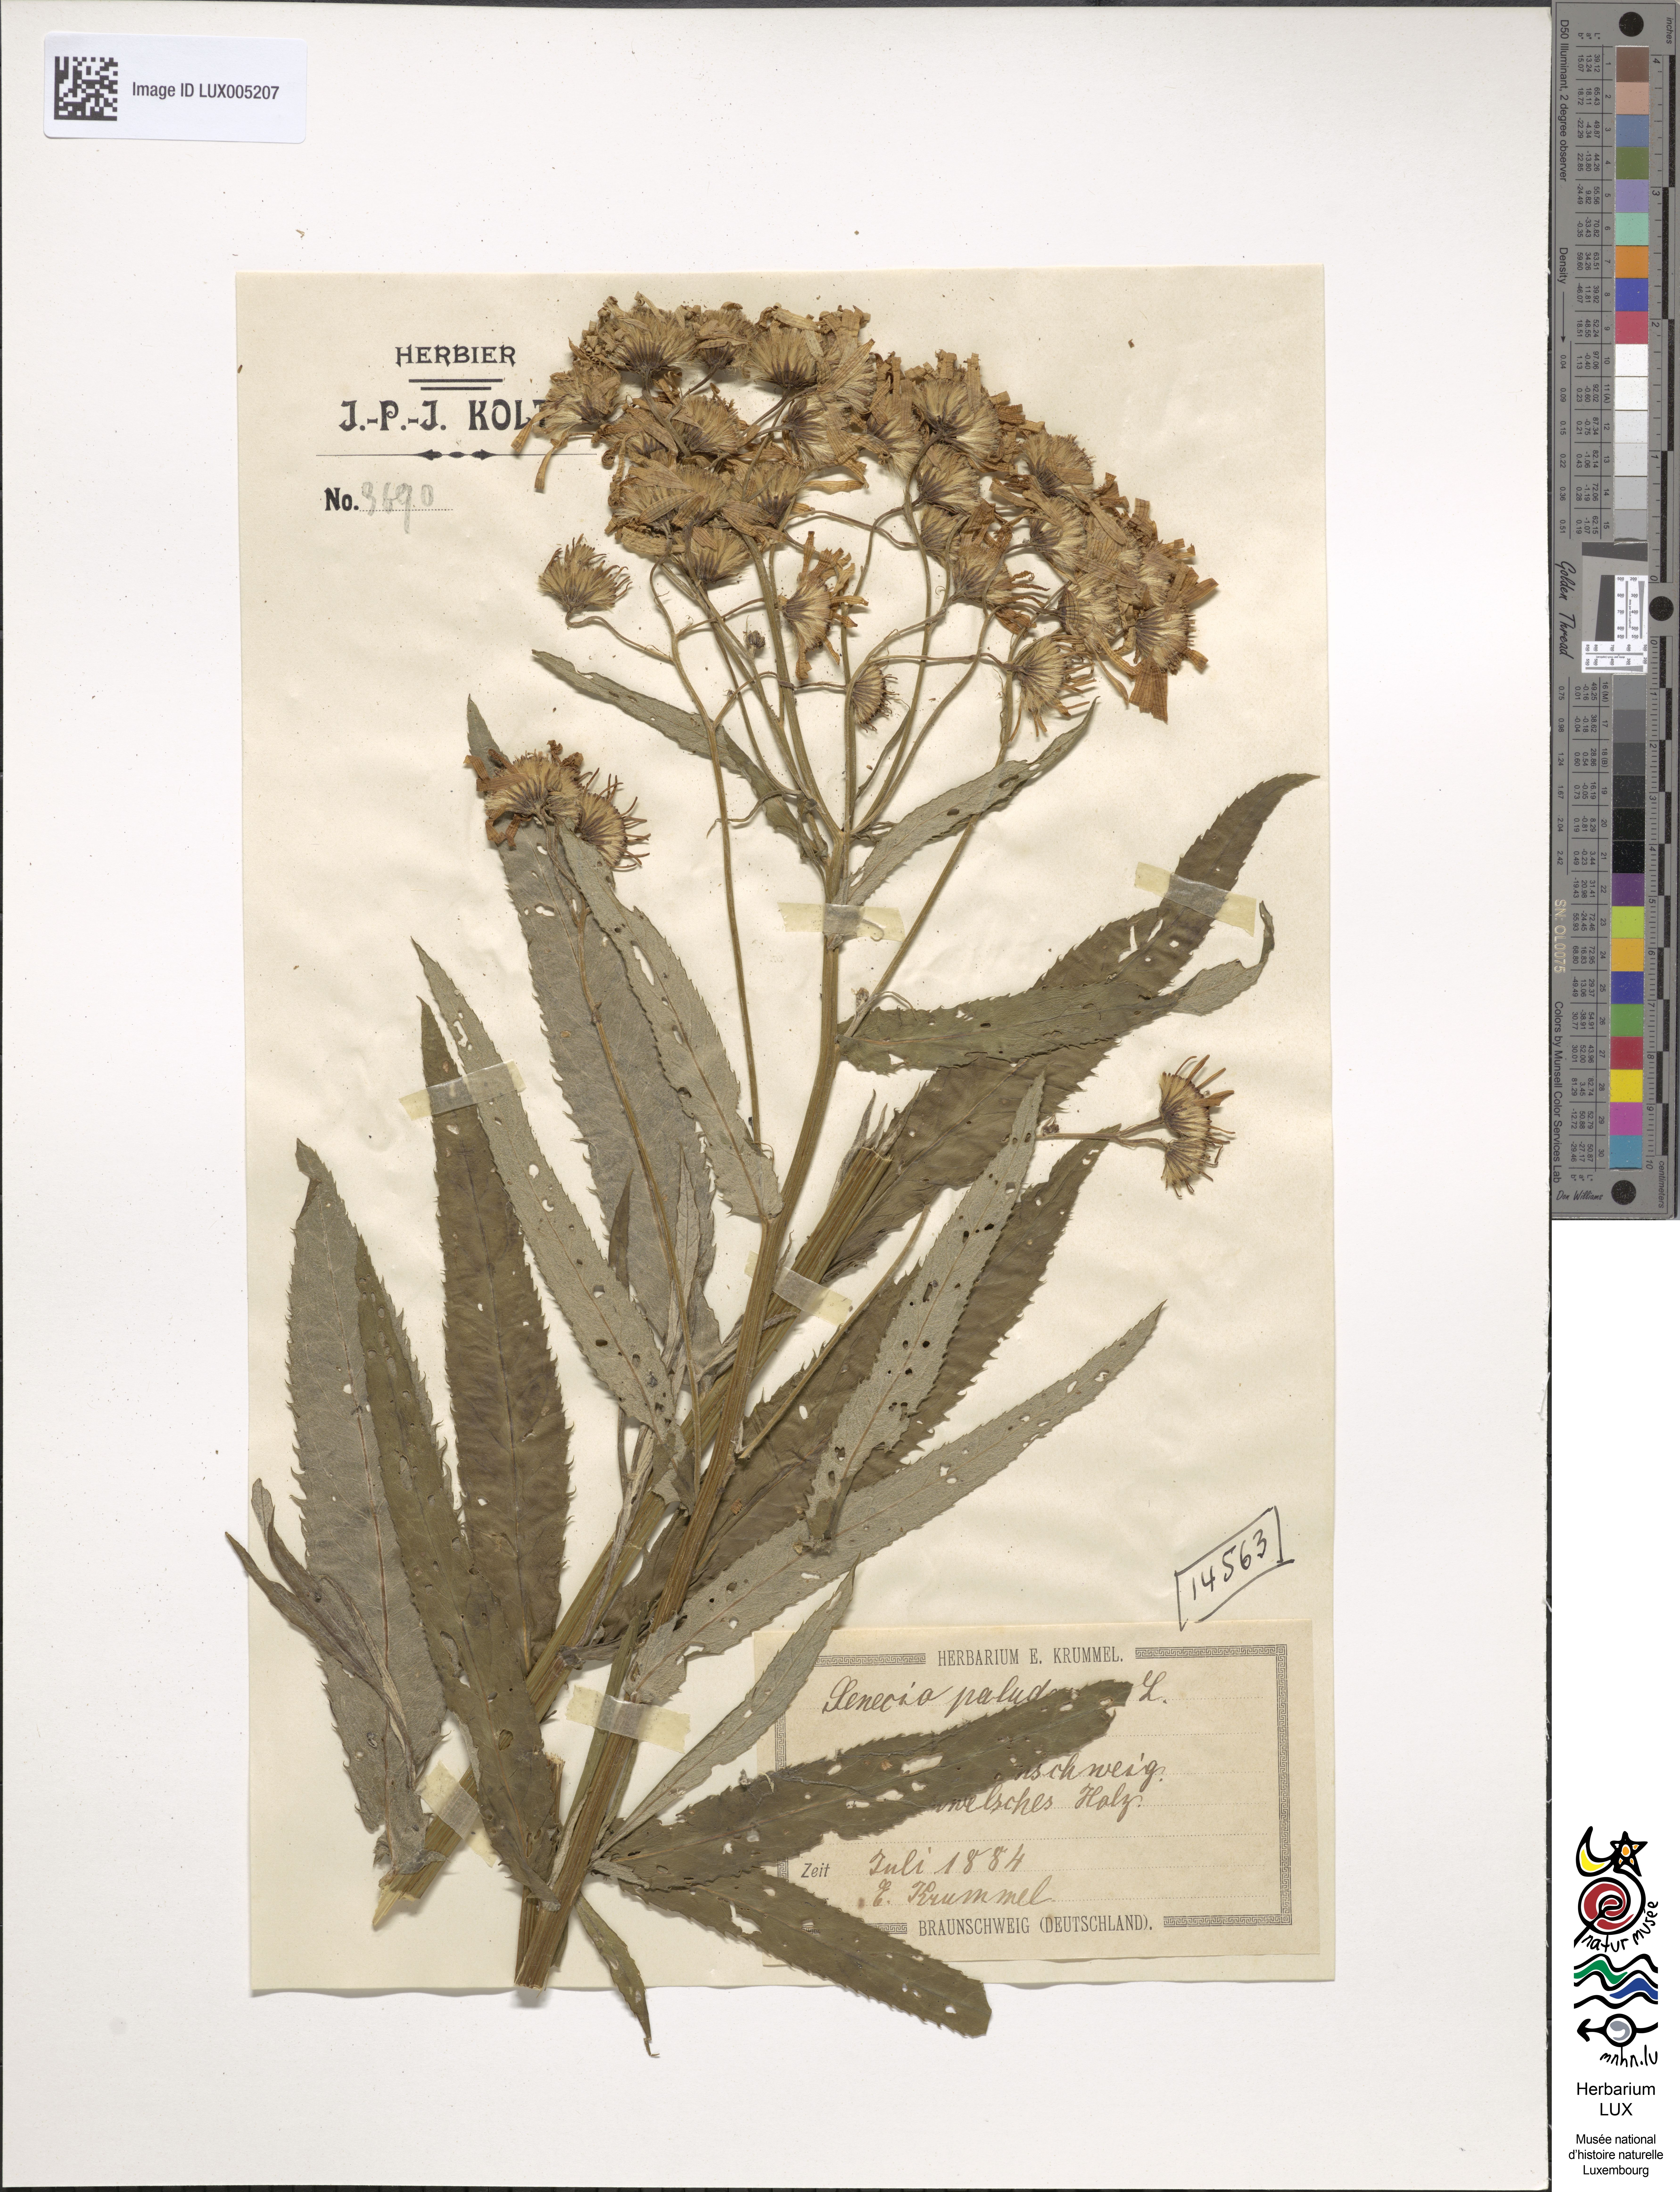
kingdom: Plantae
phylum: Tracheophyta
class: Magnoliopsida
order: Asterales
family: Asteraceae
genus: Jacobaea
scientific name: Jacobaea paludosa
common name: Fen ragwort
